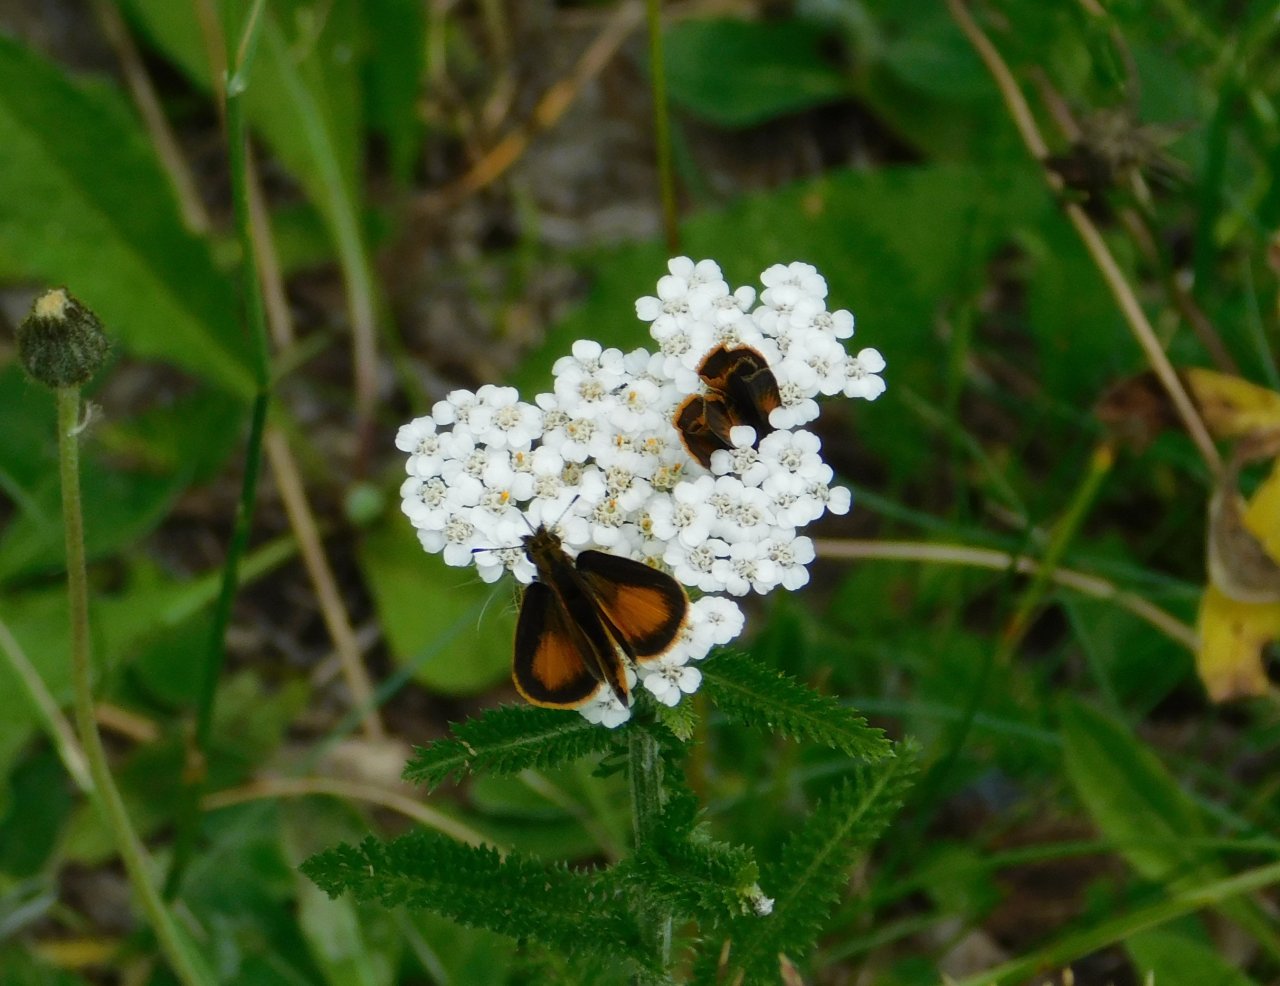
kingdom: Animalia
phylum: Arthropoda
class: Insecta
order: Lepidoptera
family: Hesperiidae
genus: Ancyloxypha
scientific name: Ancyloxypha numitor
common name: Least Skipper
